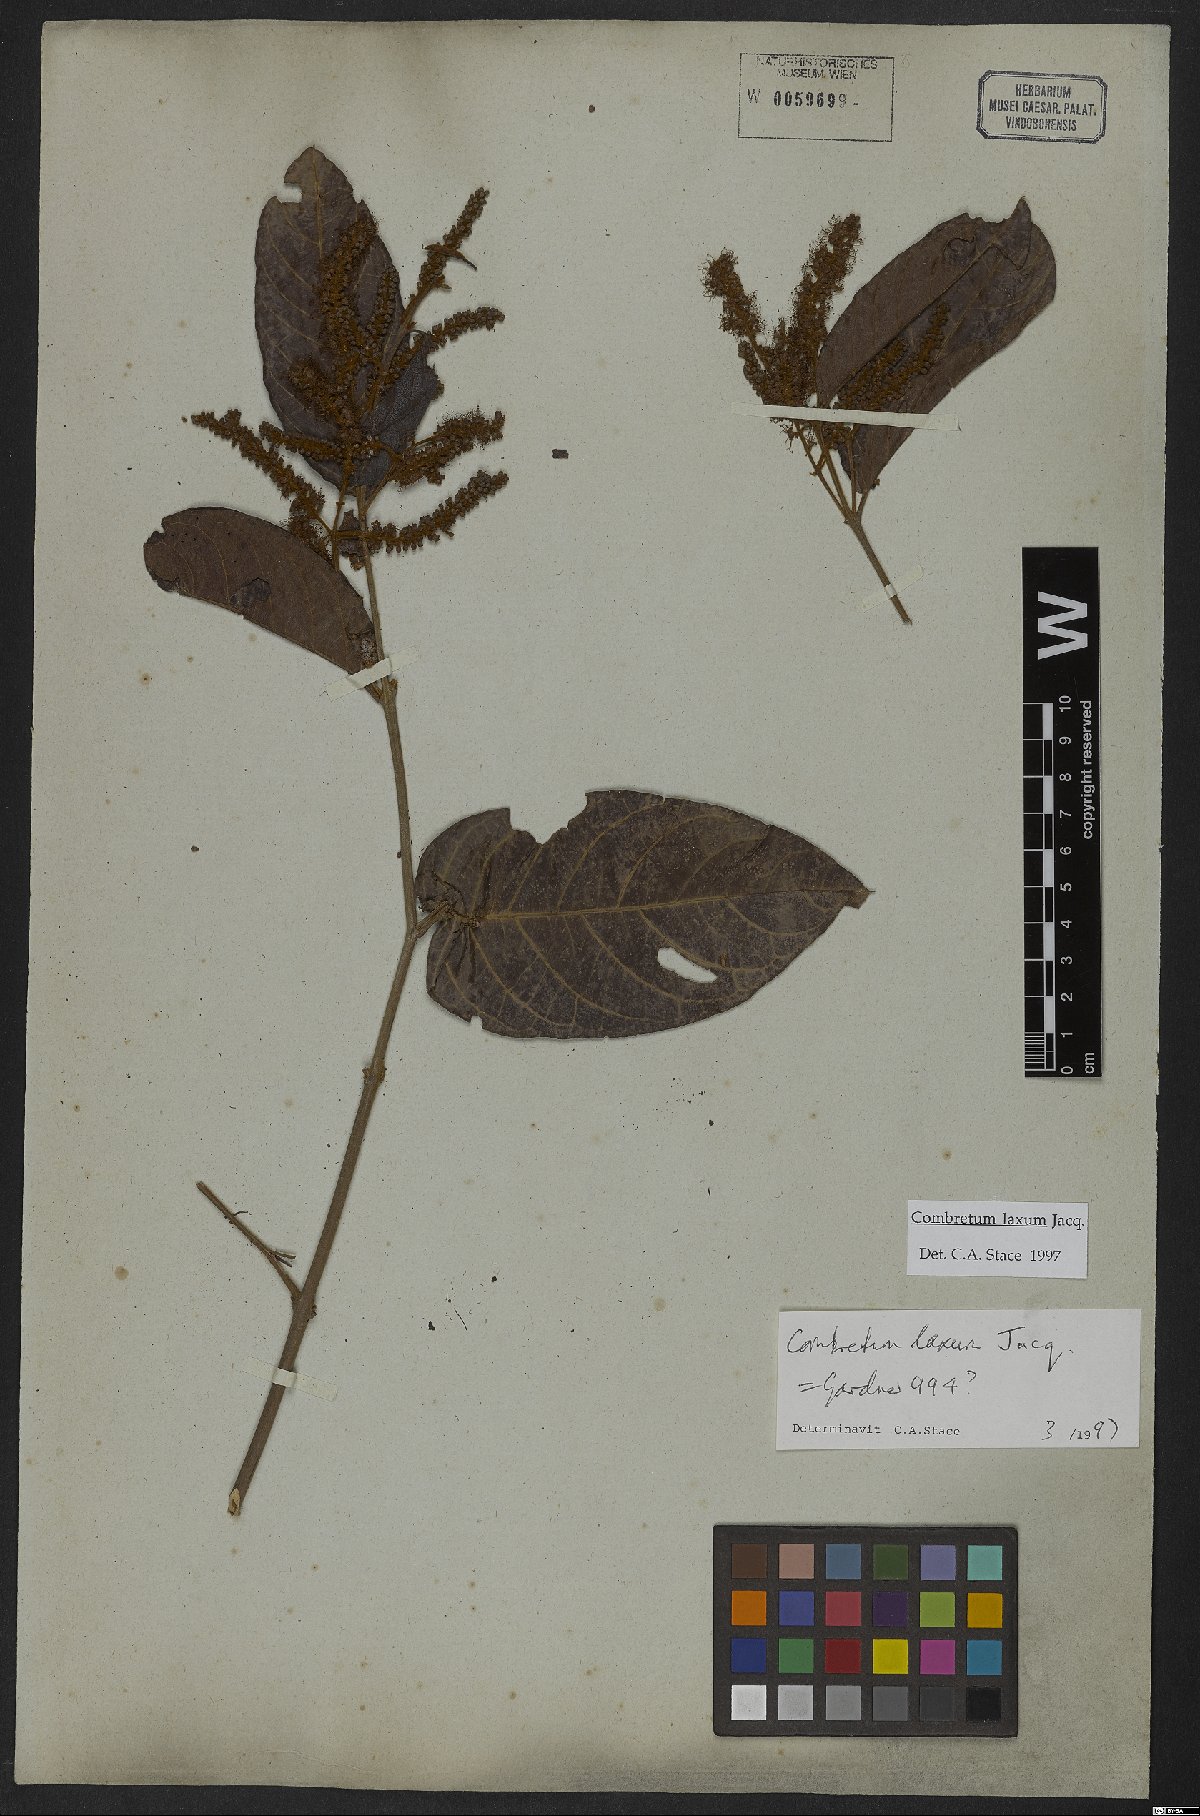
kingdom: Plantae
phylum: Tracheophyta
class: Magnoliopsida
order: Myrtales
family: Combretaceae
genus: Combretum
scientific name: Combretum laxum
